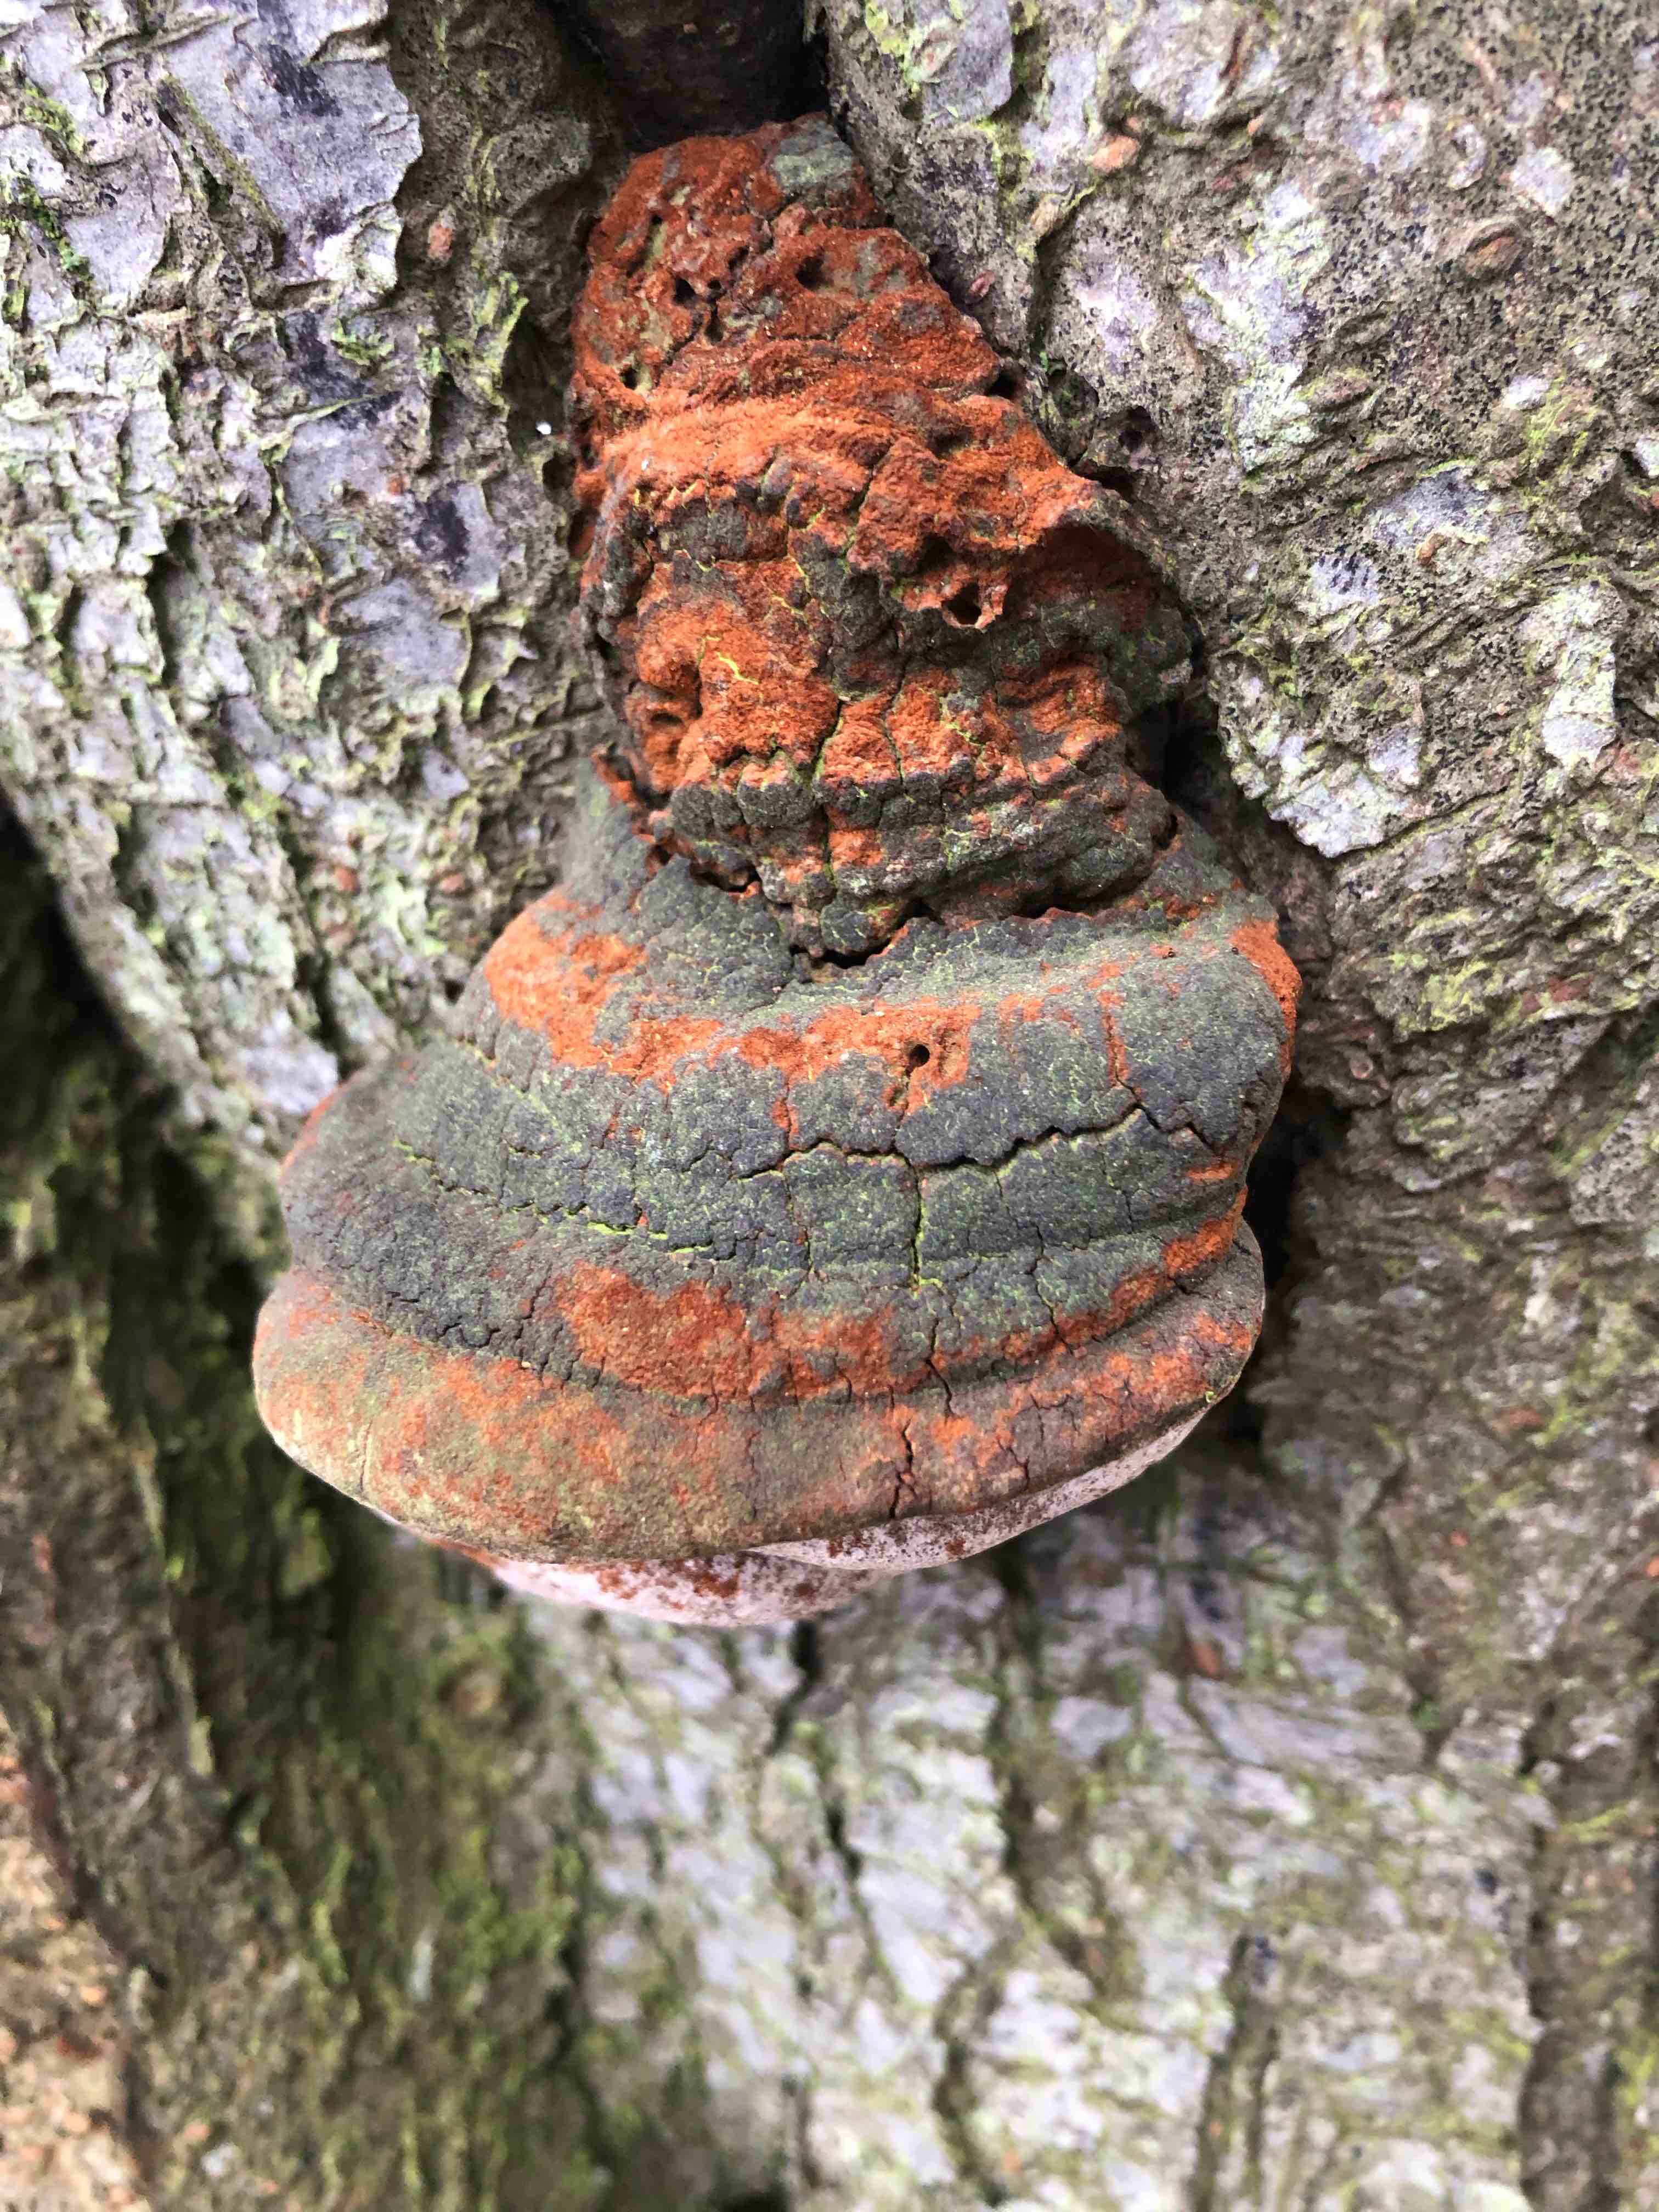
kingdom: Fungi
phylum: Basidiomycota
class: Agaricomycetes
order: Hymenochaetales
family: Hymenochaetaceae
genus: Phellinus
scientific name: Phellinus pomaceus
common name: blomme-ildporesvamp
